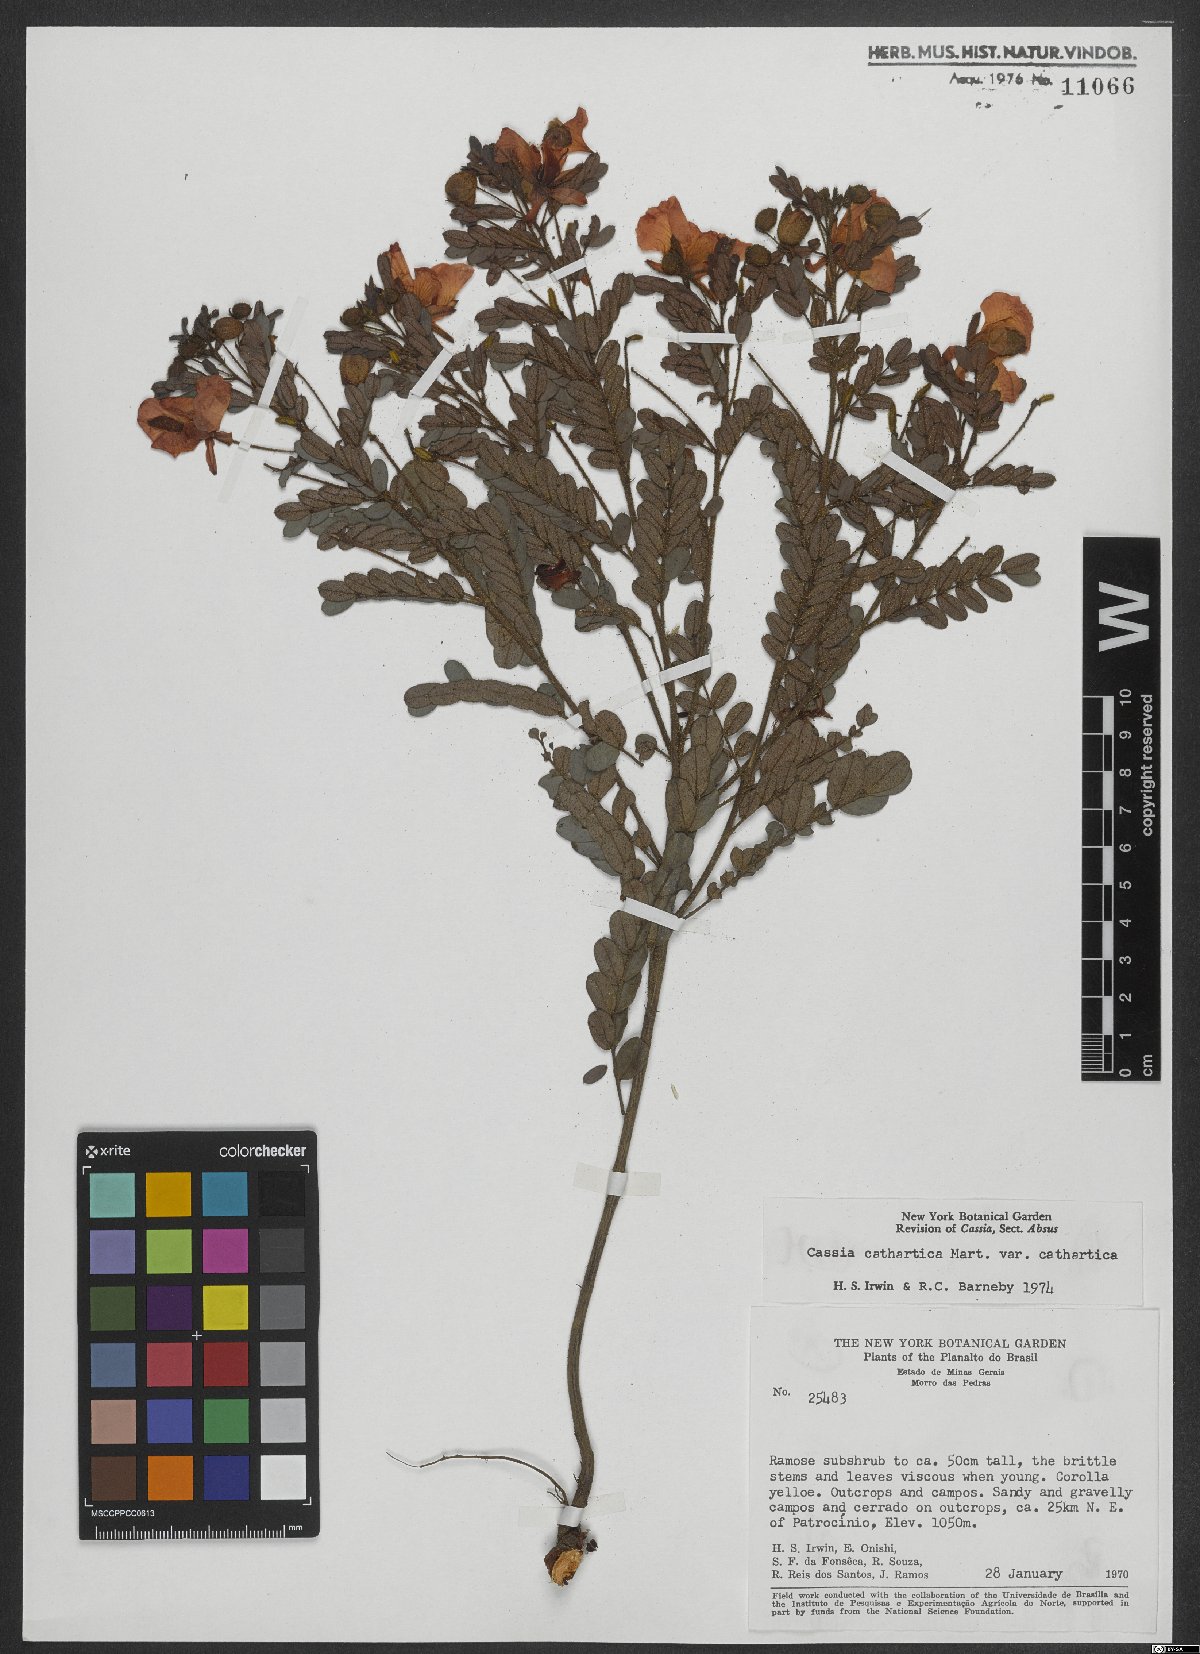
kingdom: Plantae
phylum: Tracheophyta
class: Magnoliopsida
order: Fabales
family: Fabaceae
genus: Chamaecrista
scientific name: Chamaecrista cathartica
